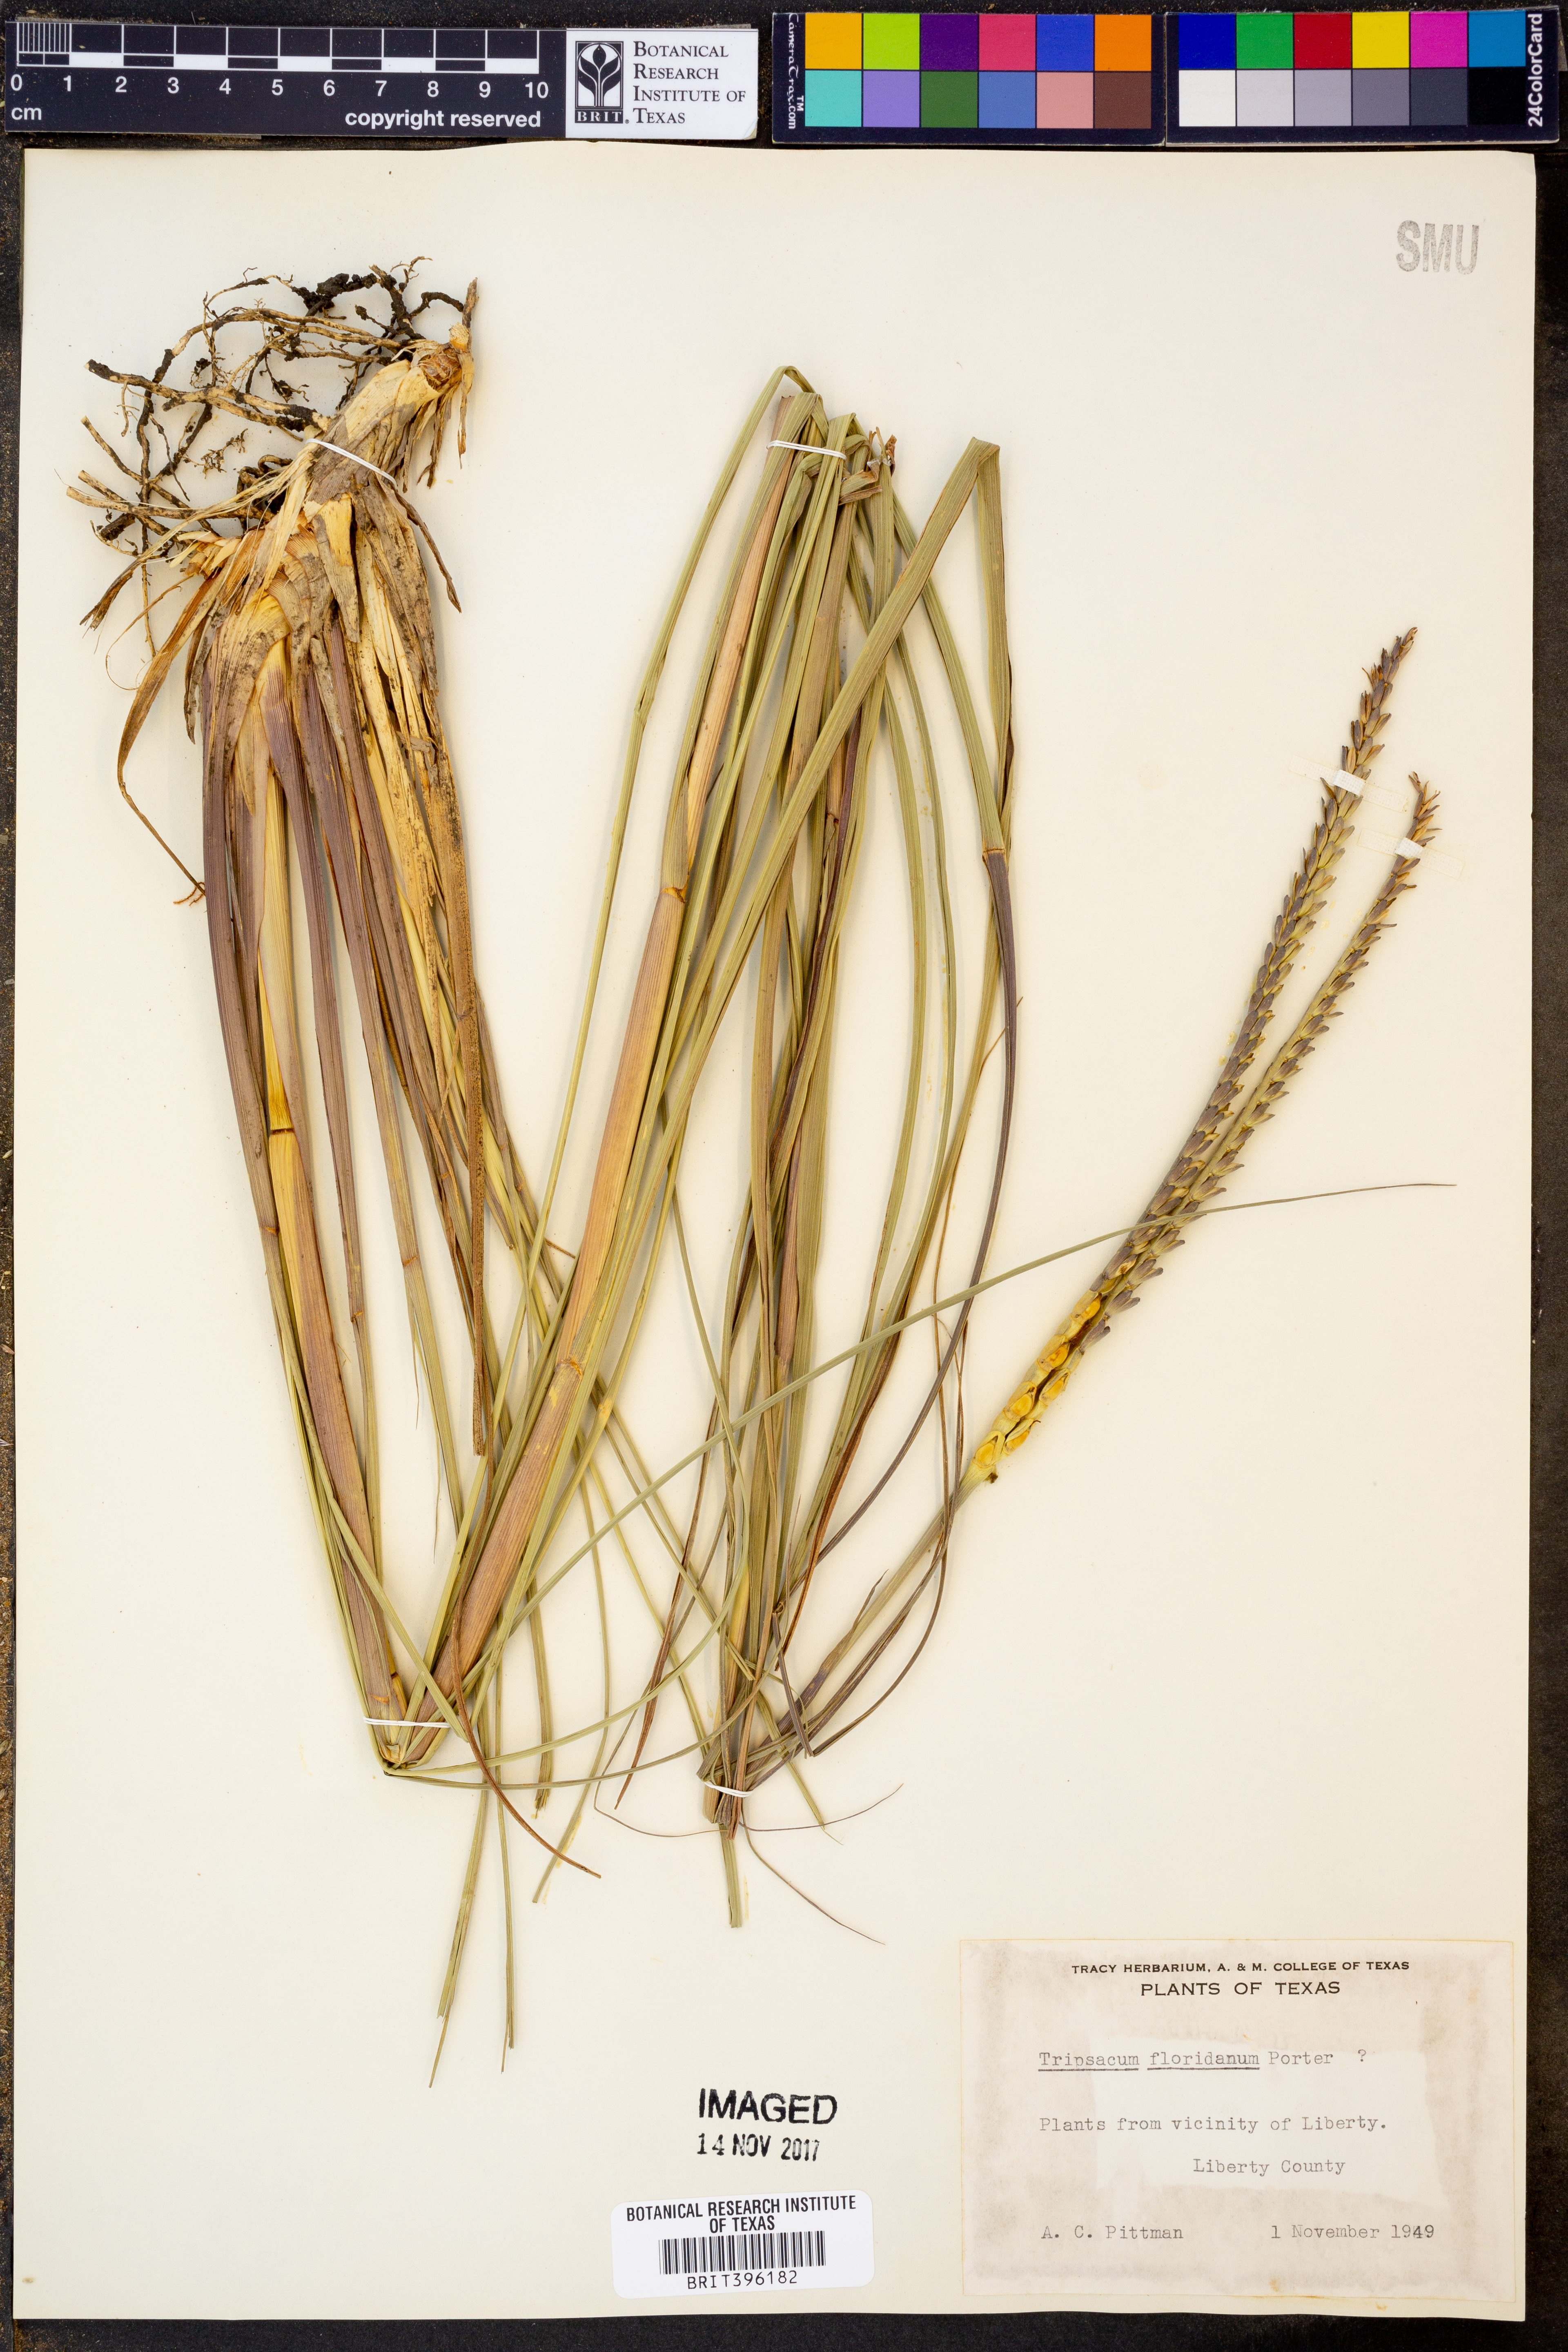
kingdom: Plantae
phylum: Tracheophyta
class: Liliopsida
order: Poales
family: Poaceae
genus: Tripsacum
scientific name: Tripsacum dactyloides
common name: Buffalo-grass
